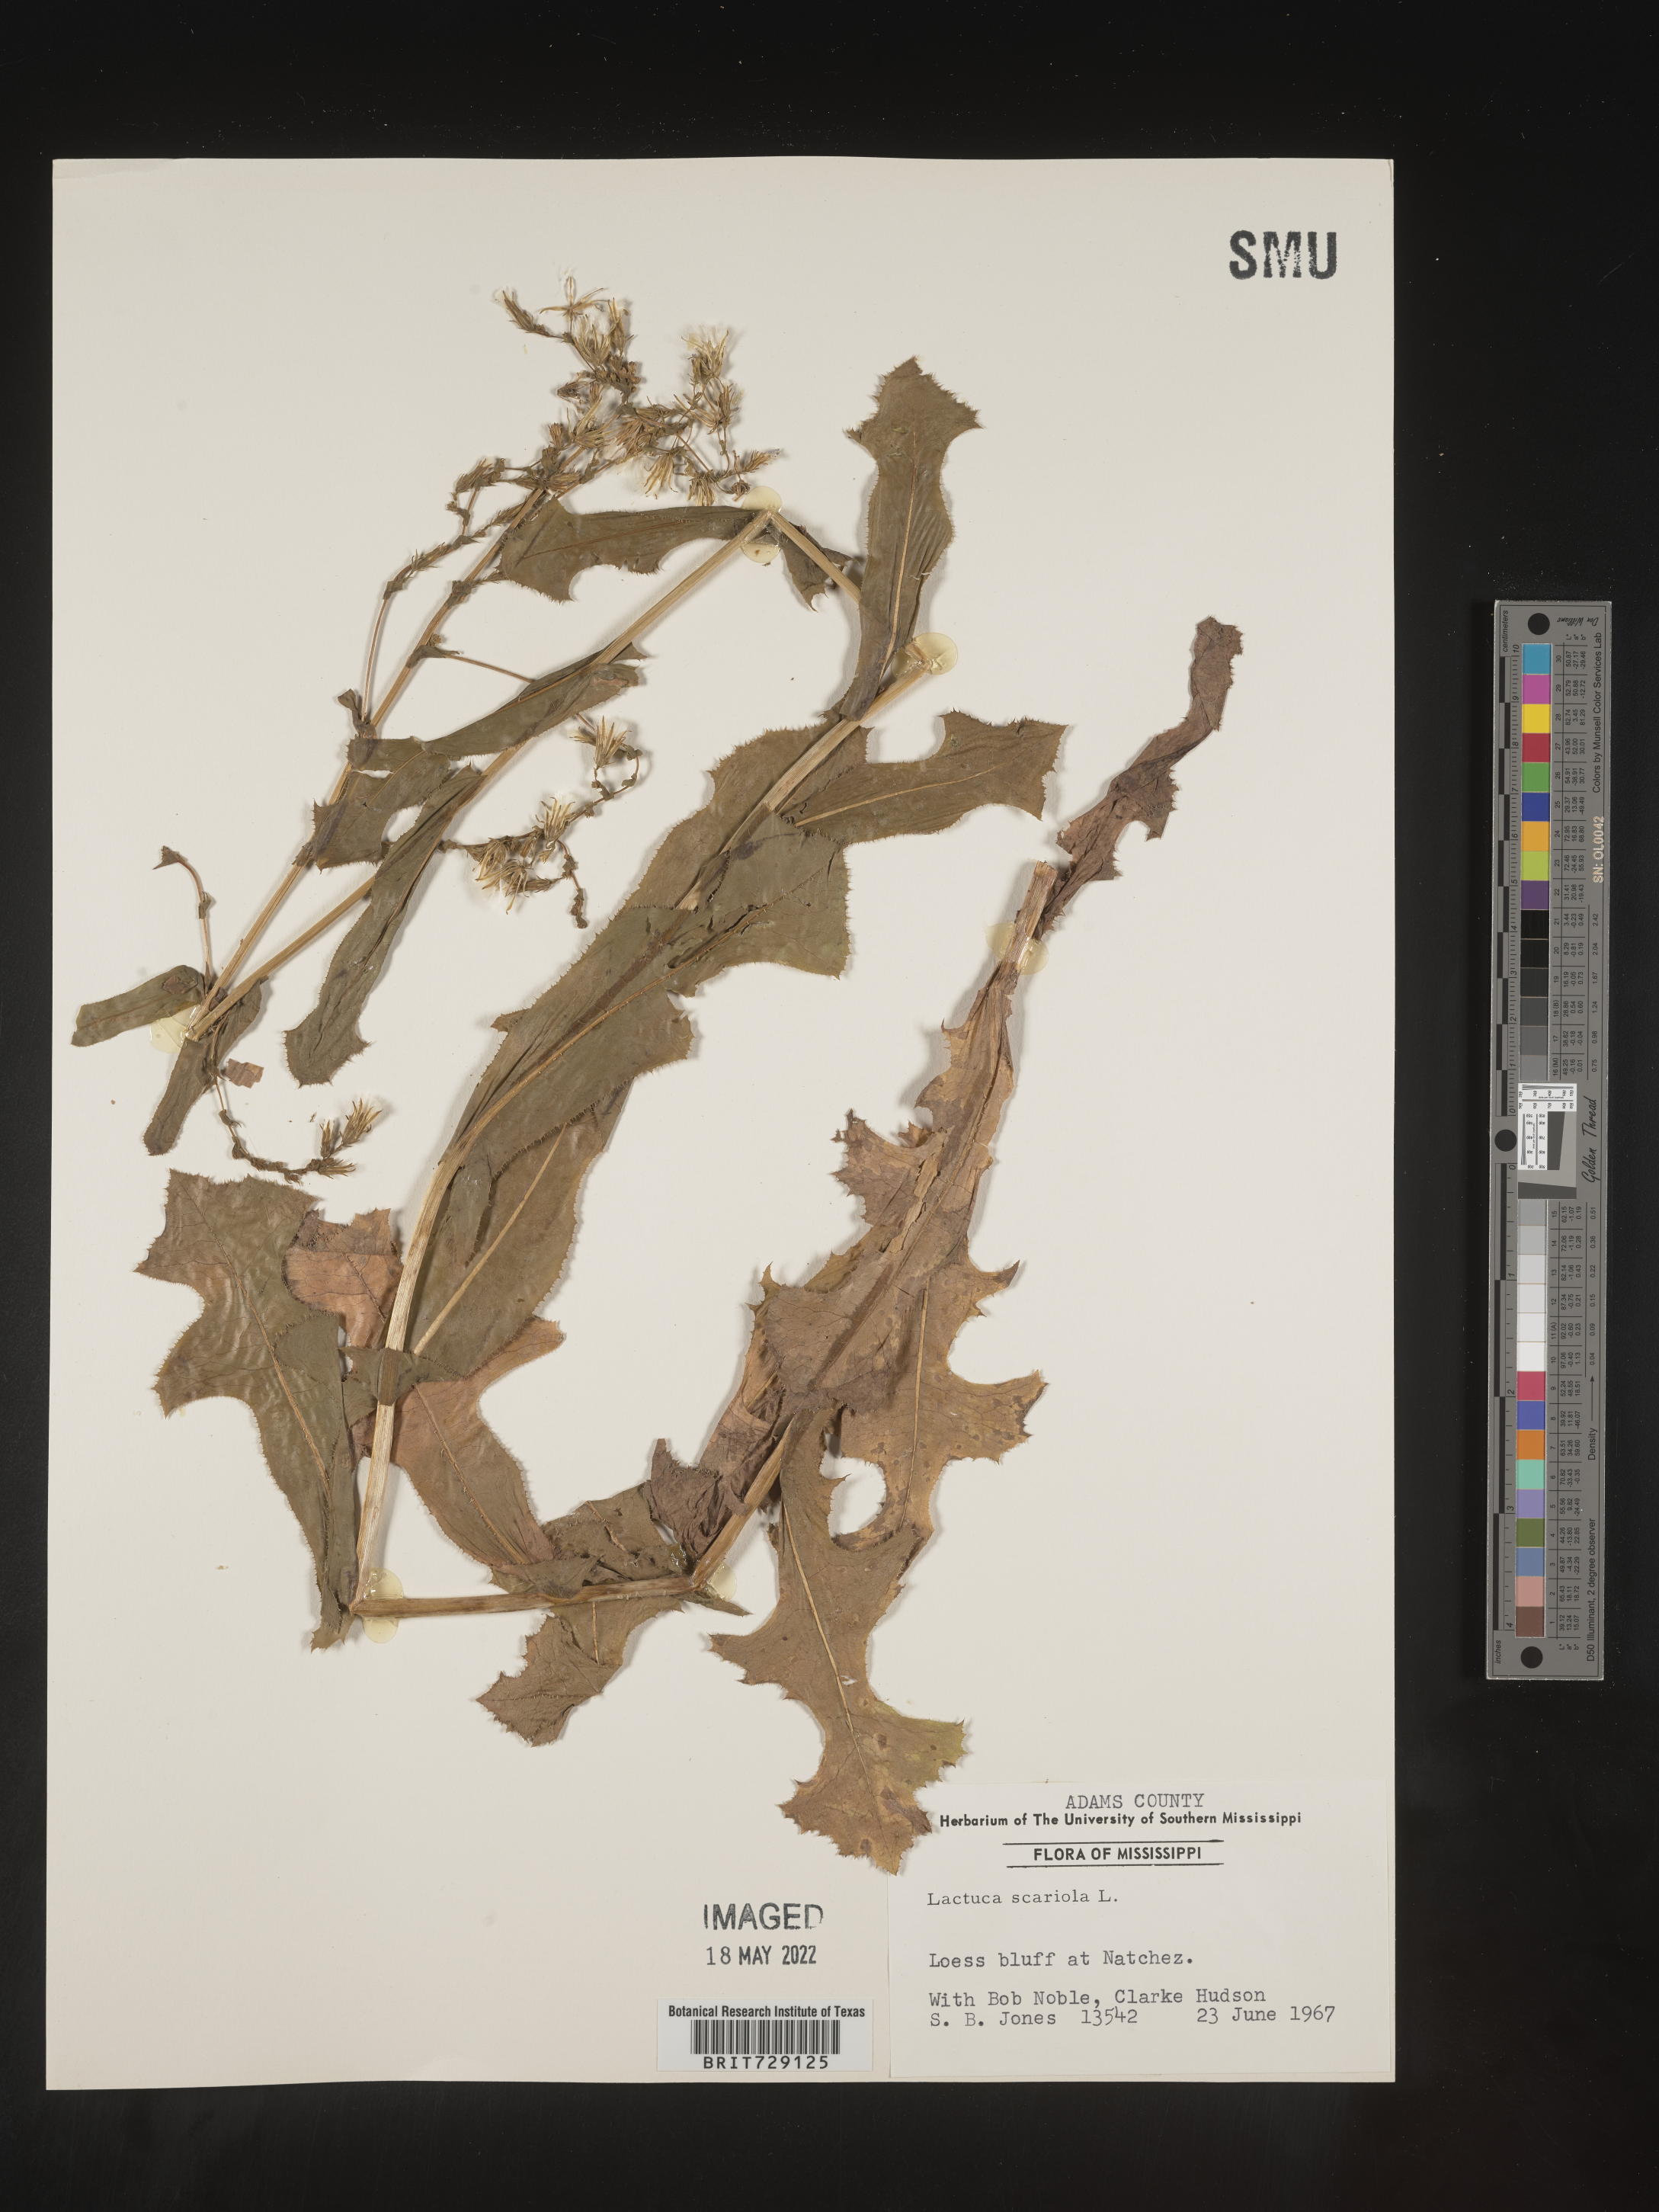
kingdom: Plantae
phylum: Tracheophyta
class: Magnoliopsida
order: Asterales
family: Asteraceae
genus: Lactuca
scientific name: Lactuca serriola
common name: Prickly lettuce
